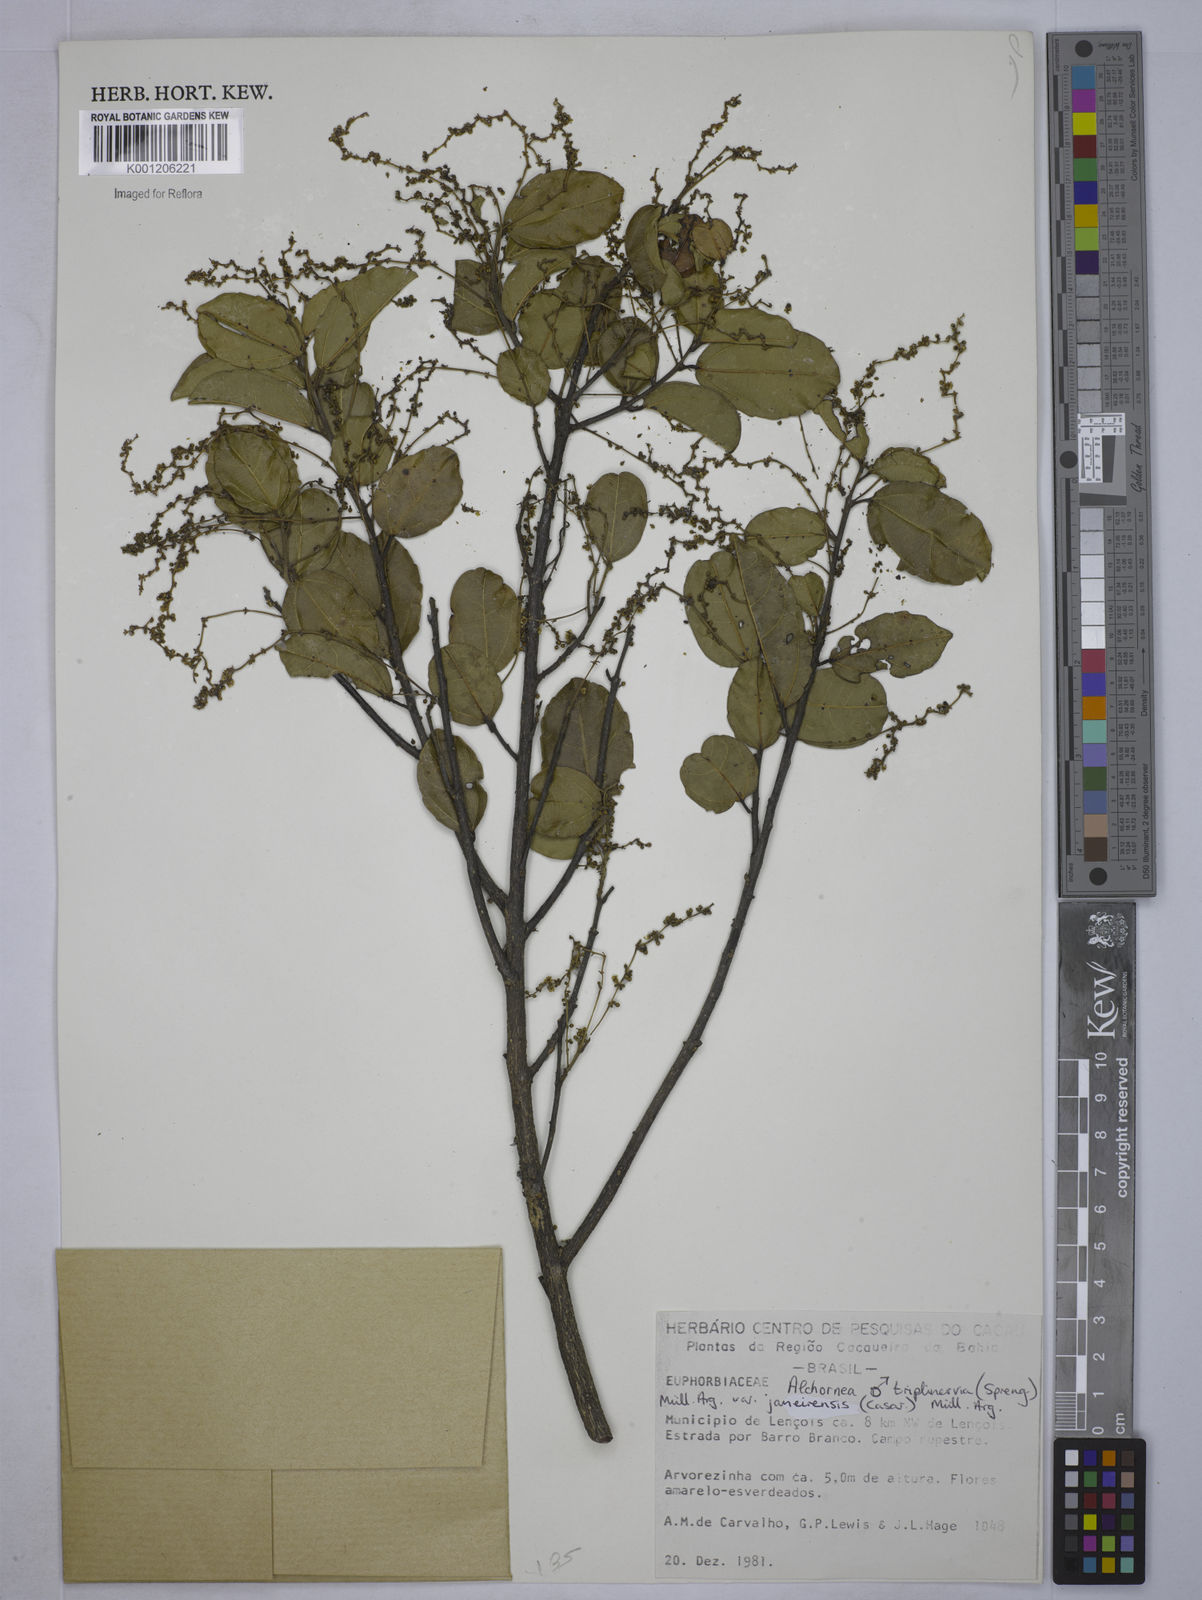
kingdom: Plantae
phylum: Tracheophyta
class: Magnoliopsida
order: Malpighiales
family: Euphorbiaceae
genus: Alchornea
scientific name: Alchornea
